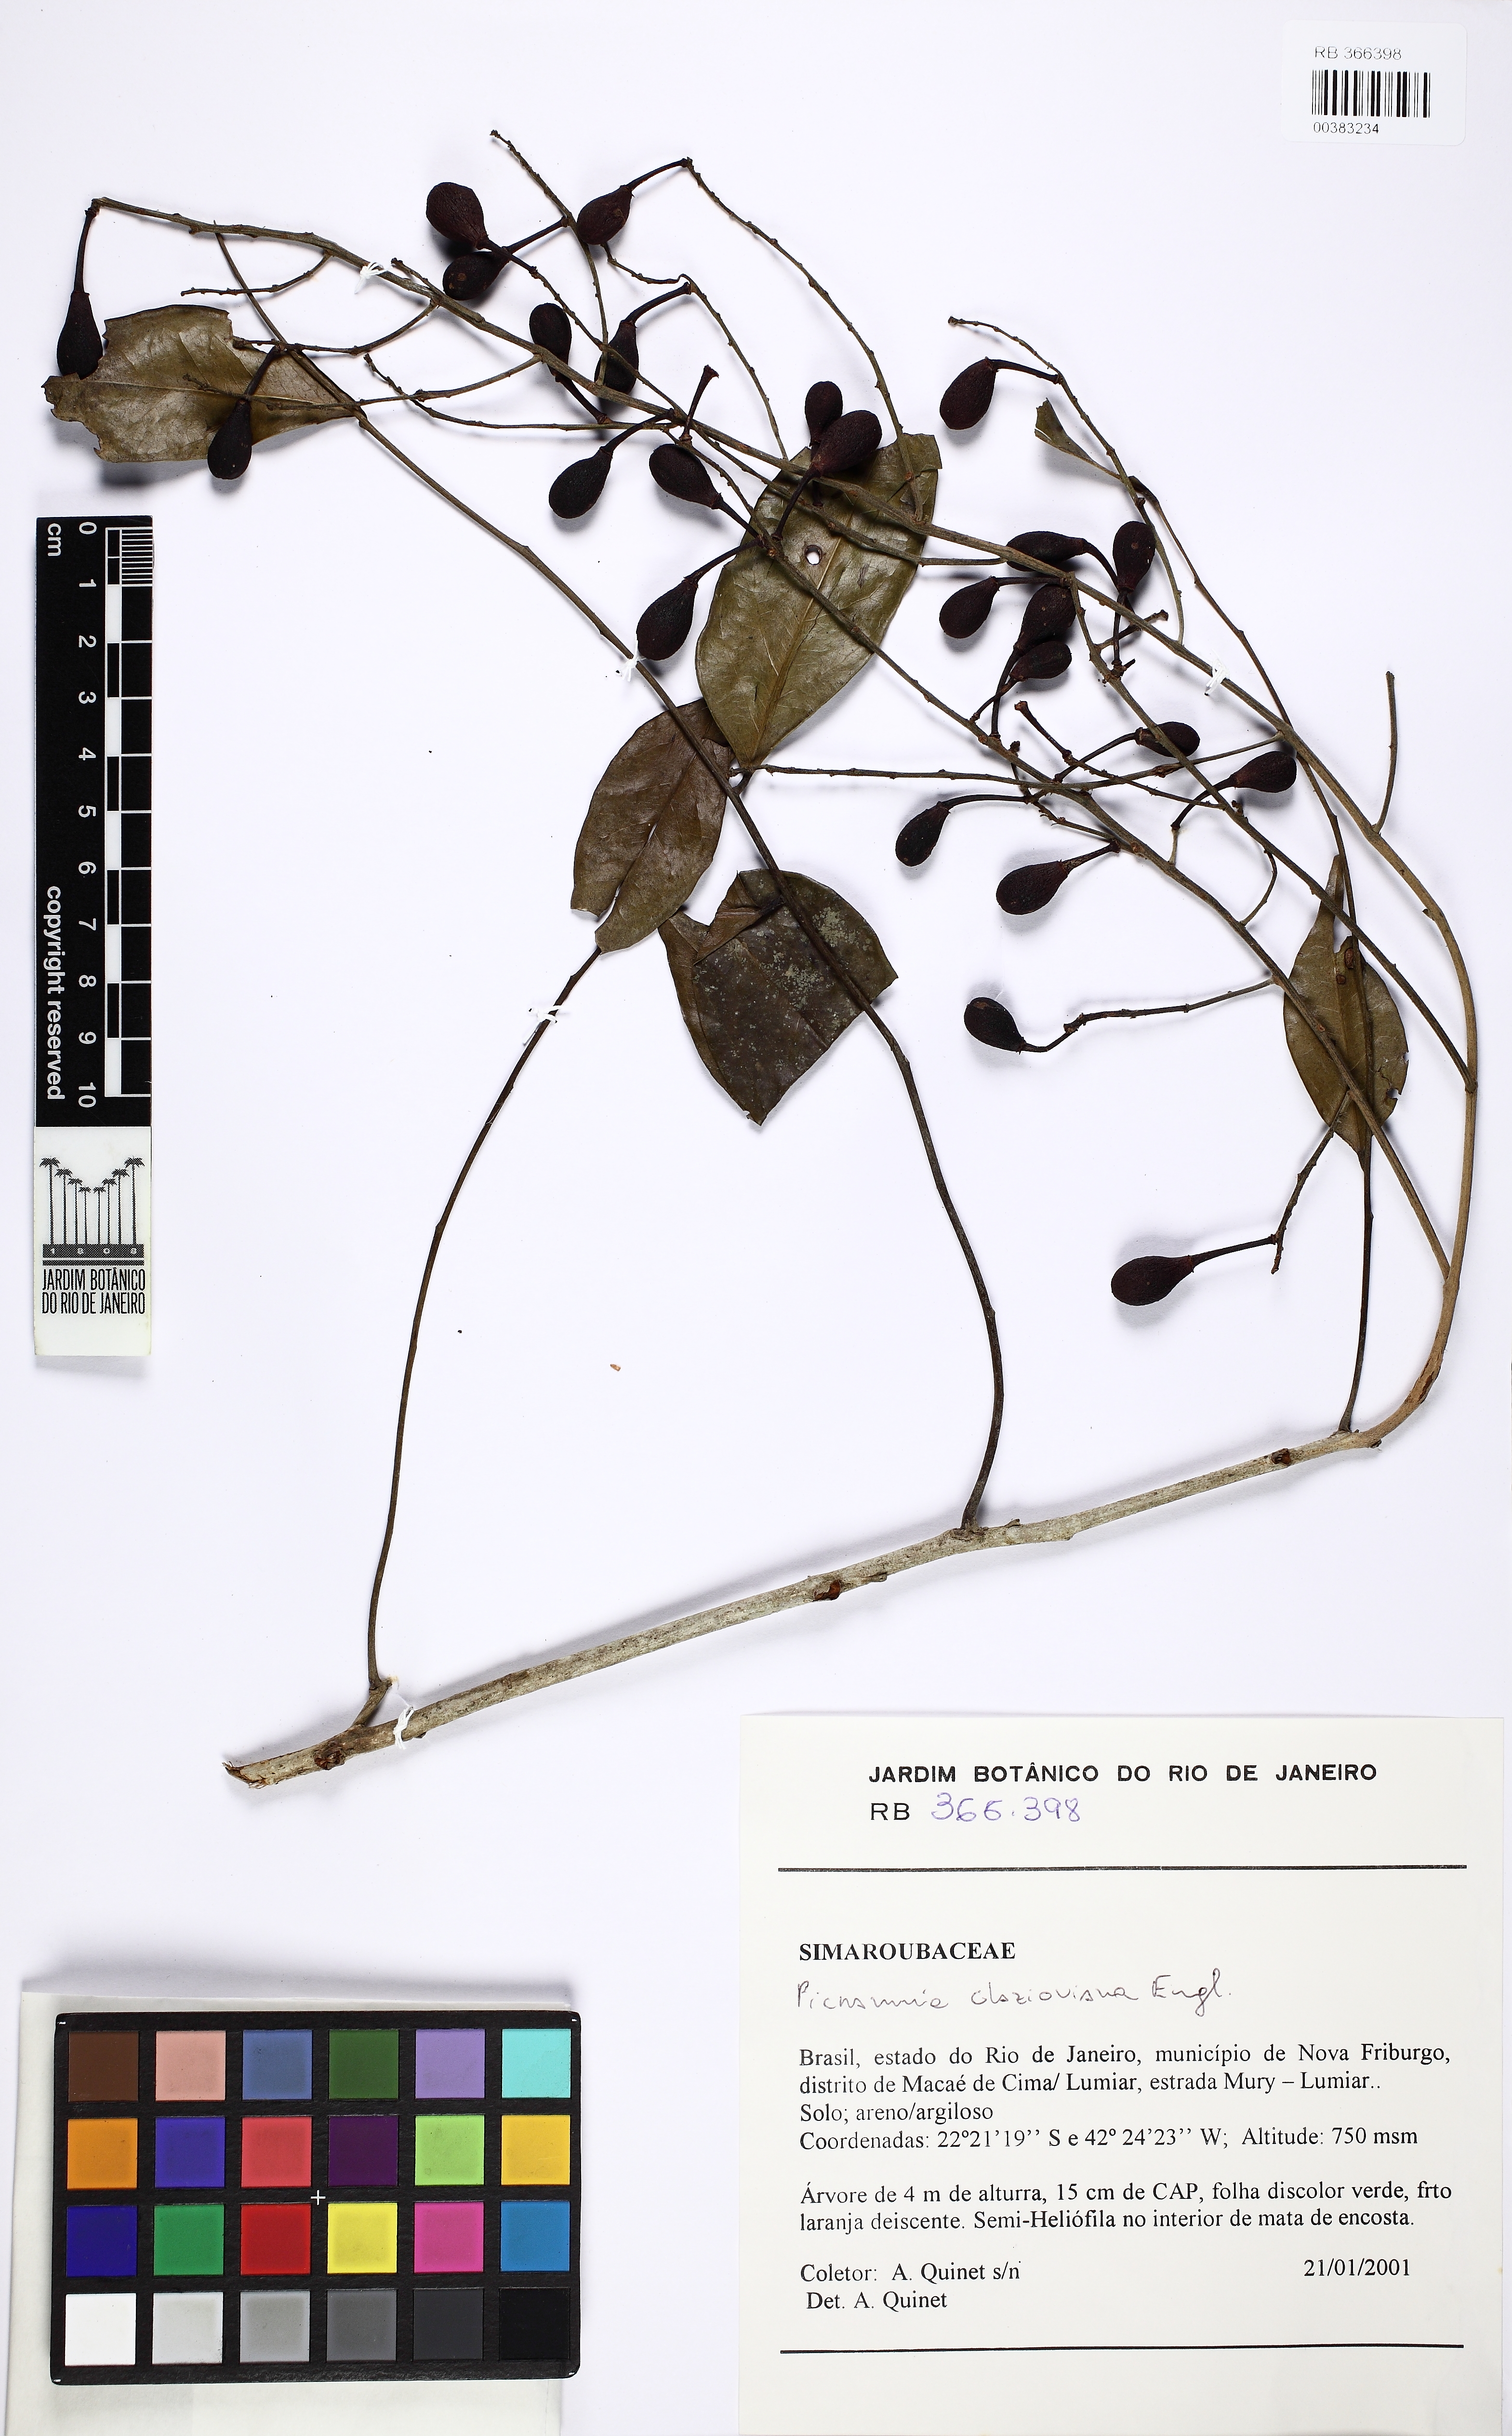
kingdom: Plantae
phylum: Tracheophyta
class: Magnoliopsida
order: Picramniales
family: Picramniaceae
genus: Picramnia
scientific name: Picramnia glazioviana
